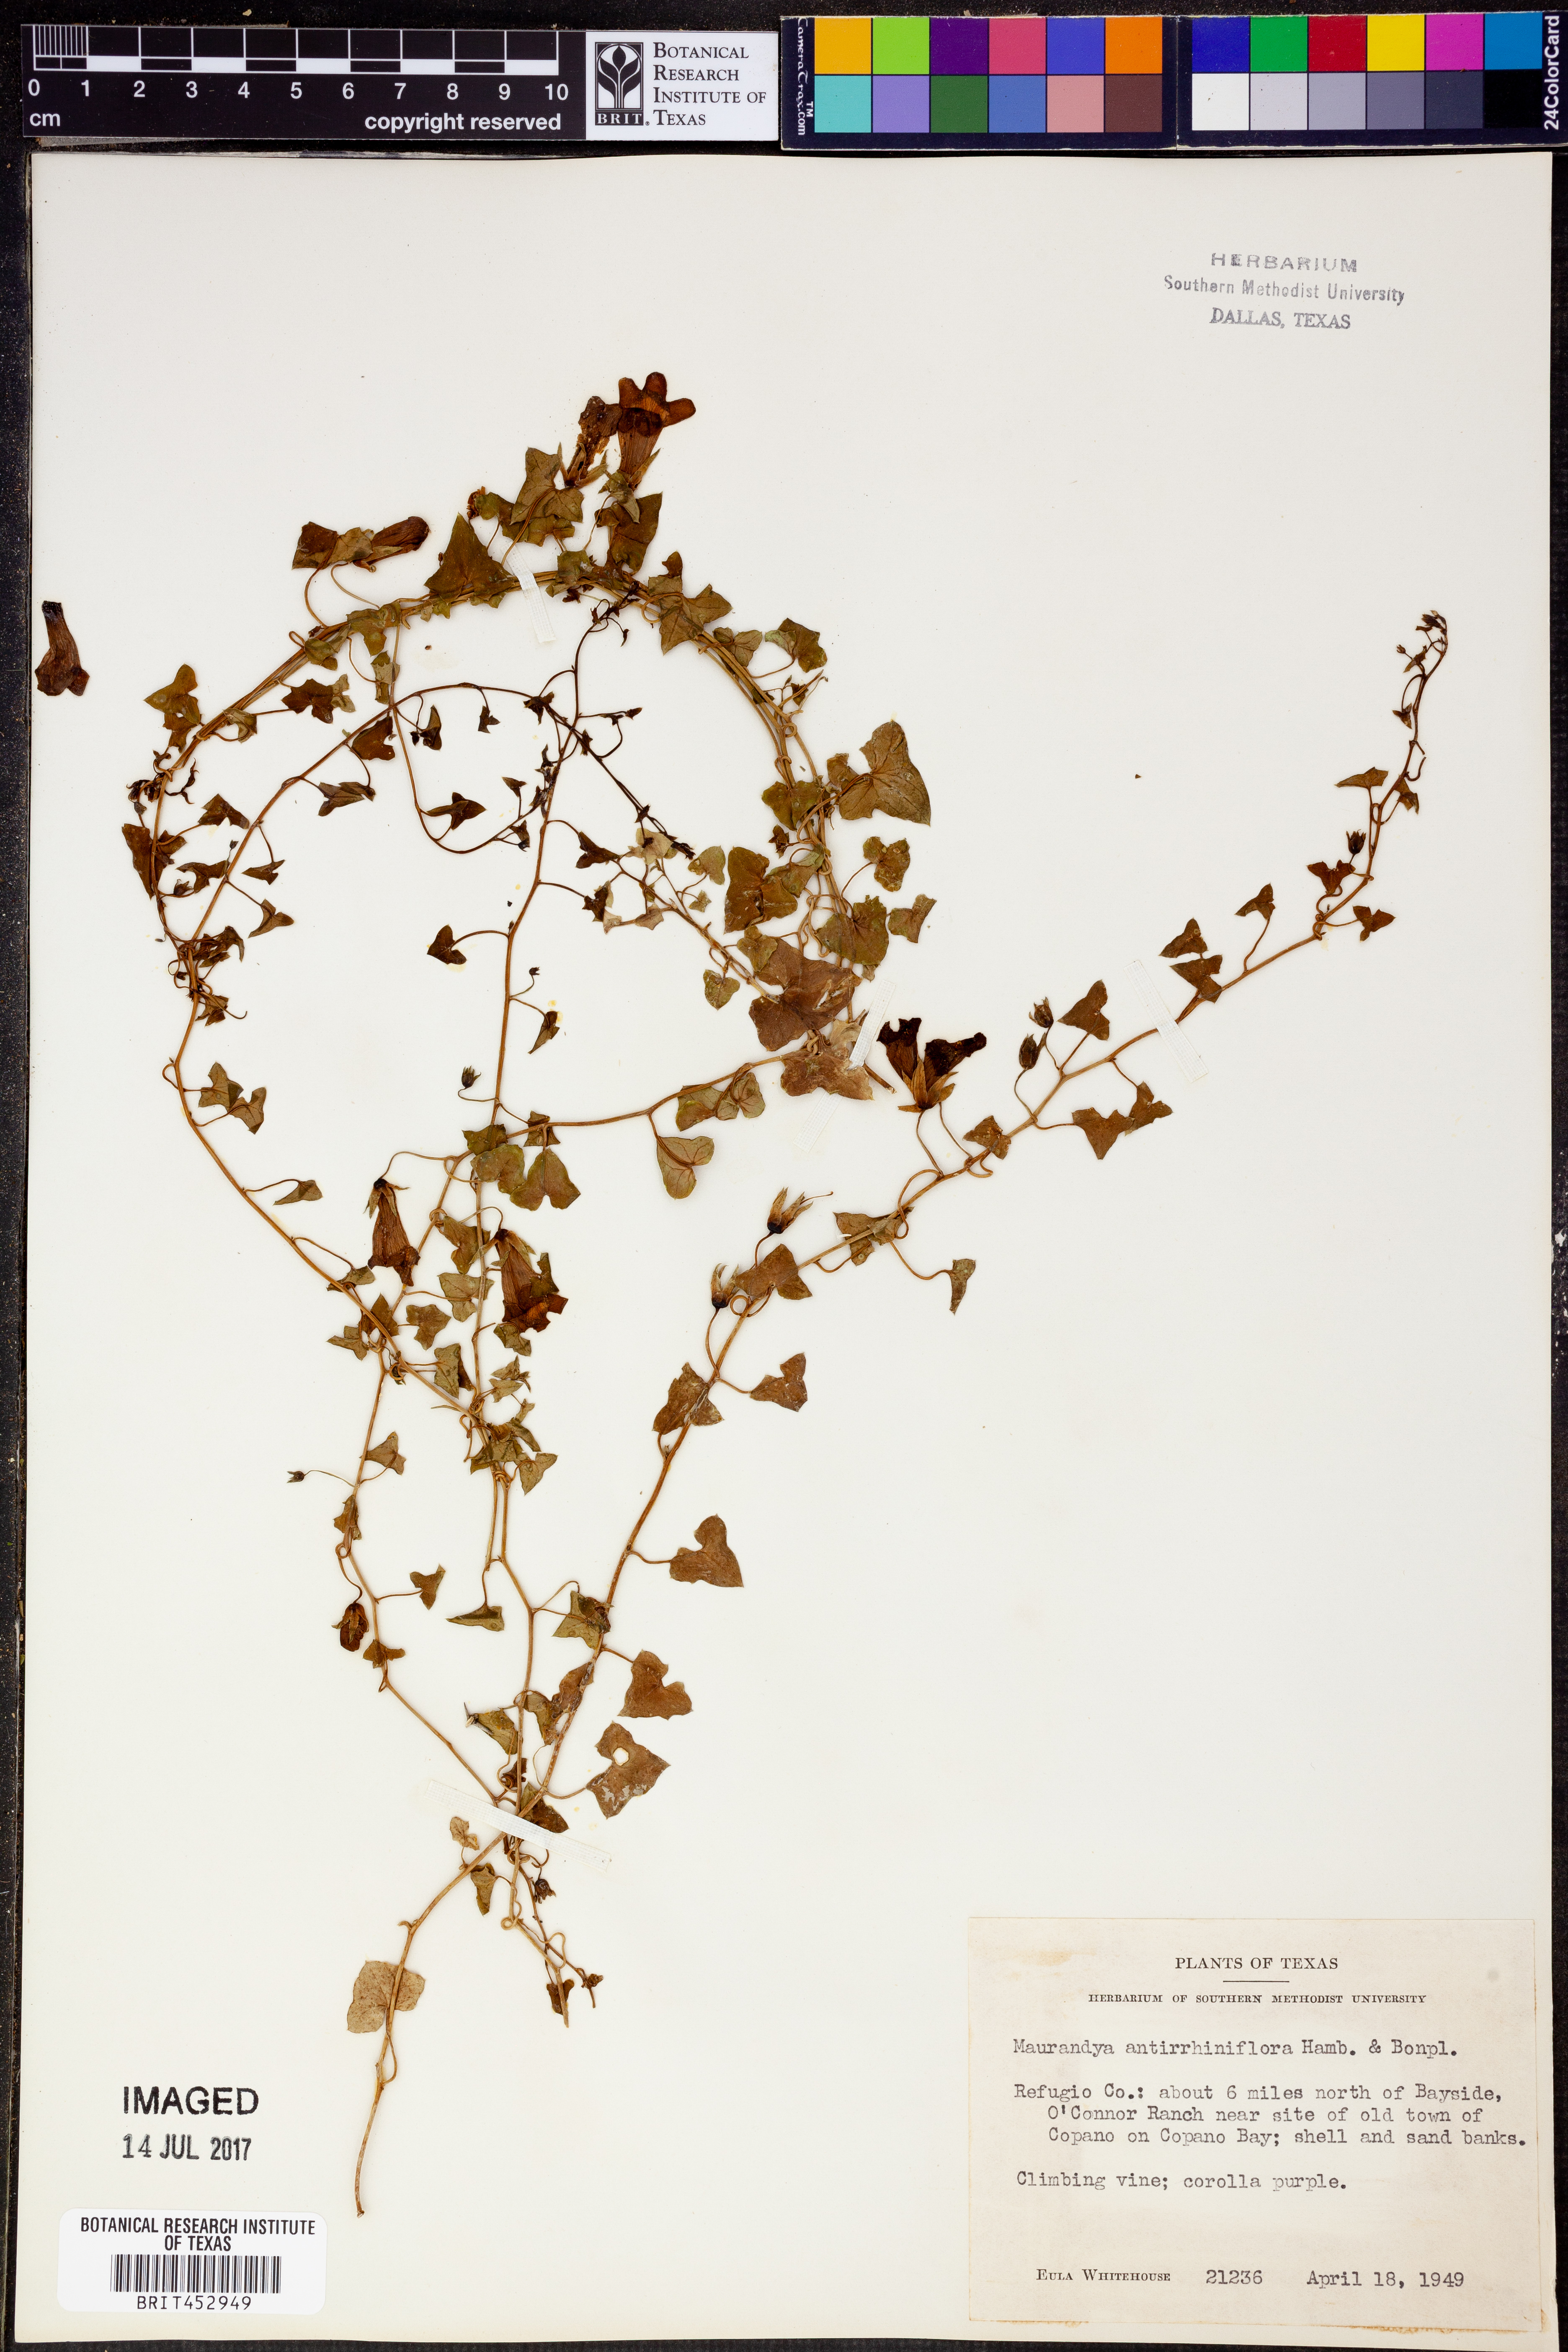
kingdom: Plantae
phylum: Tracheophyta
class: Magnoliopsida
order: Lamiales
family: Plantaginaceae
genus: Maurandella
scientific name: Maurandella antirrhiniflora
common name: Violet twining-snapdragon
